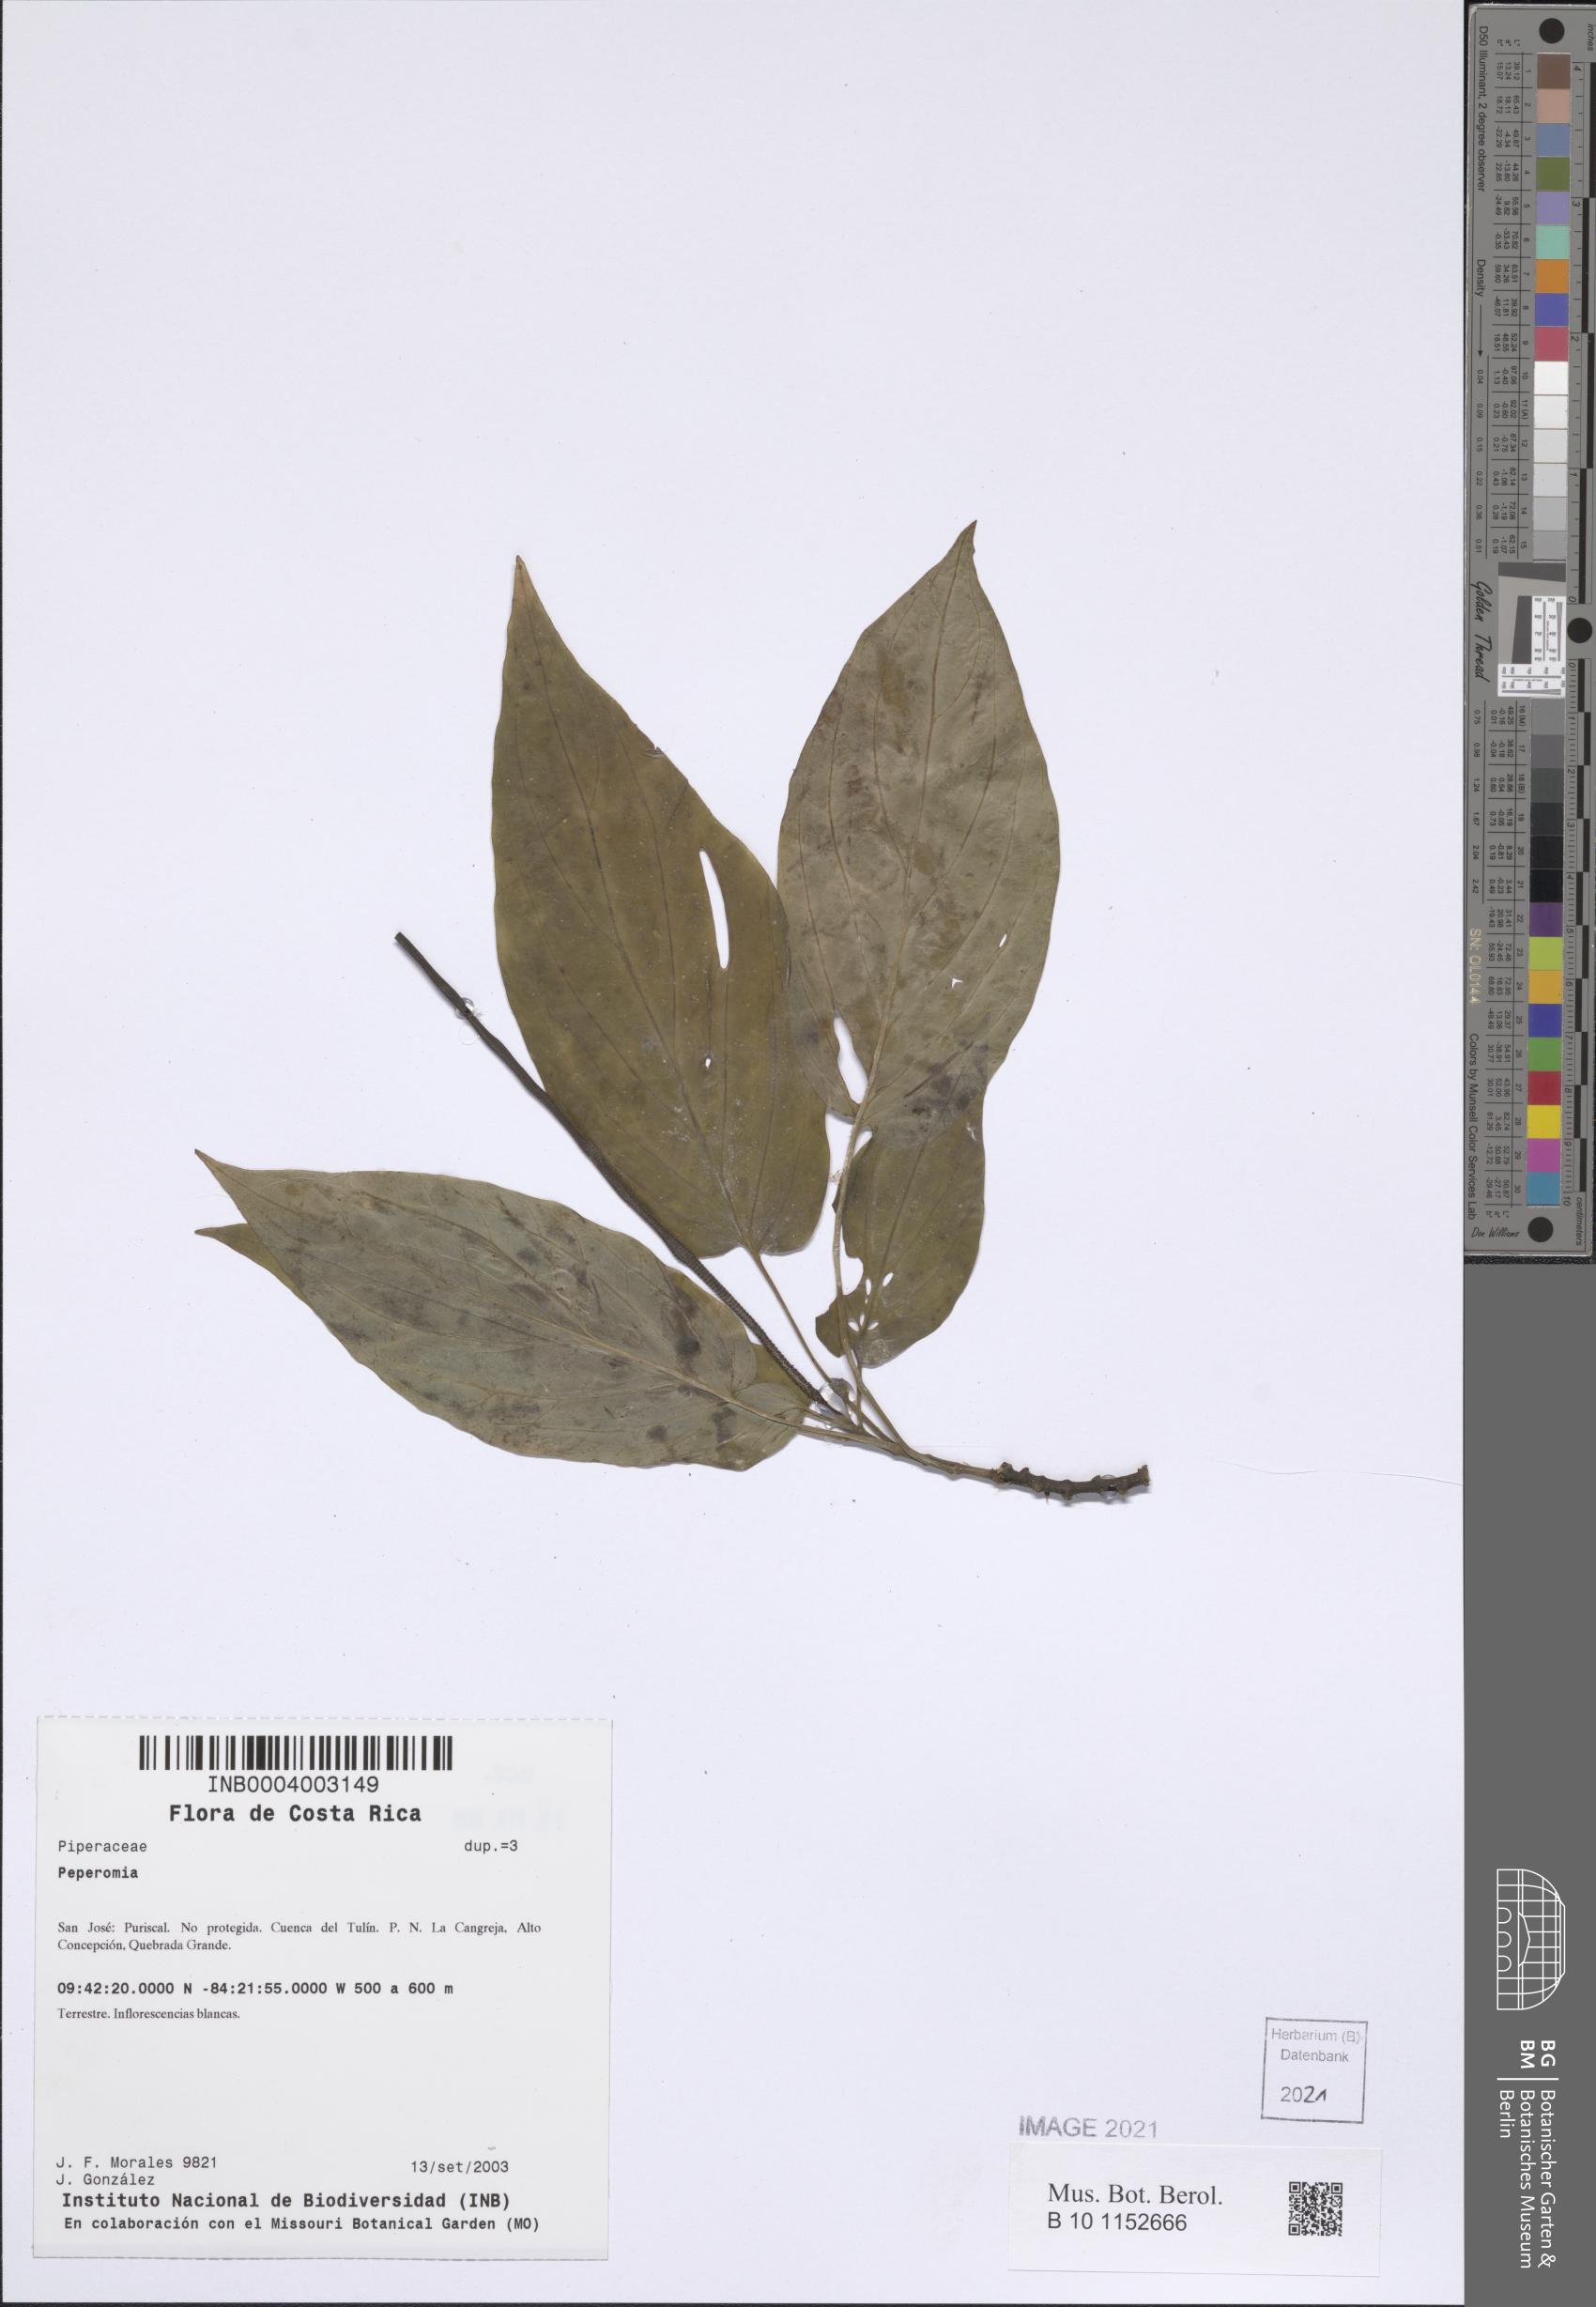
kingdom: Plantae
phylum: Tracheophyta
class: Magnoliopsida
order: Piperales
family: Piperaceae
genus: Peperomia
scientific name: Peperomia
